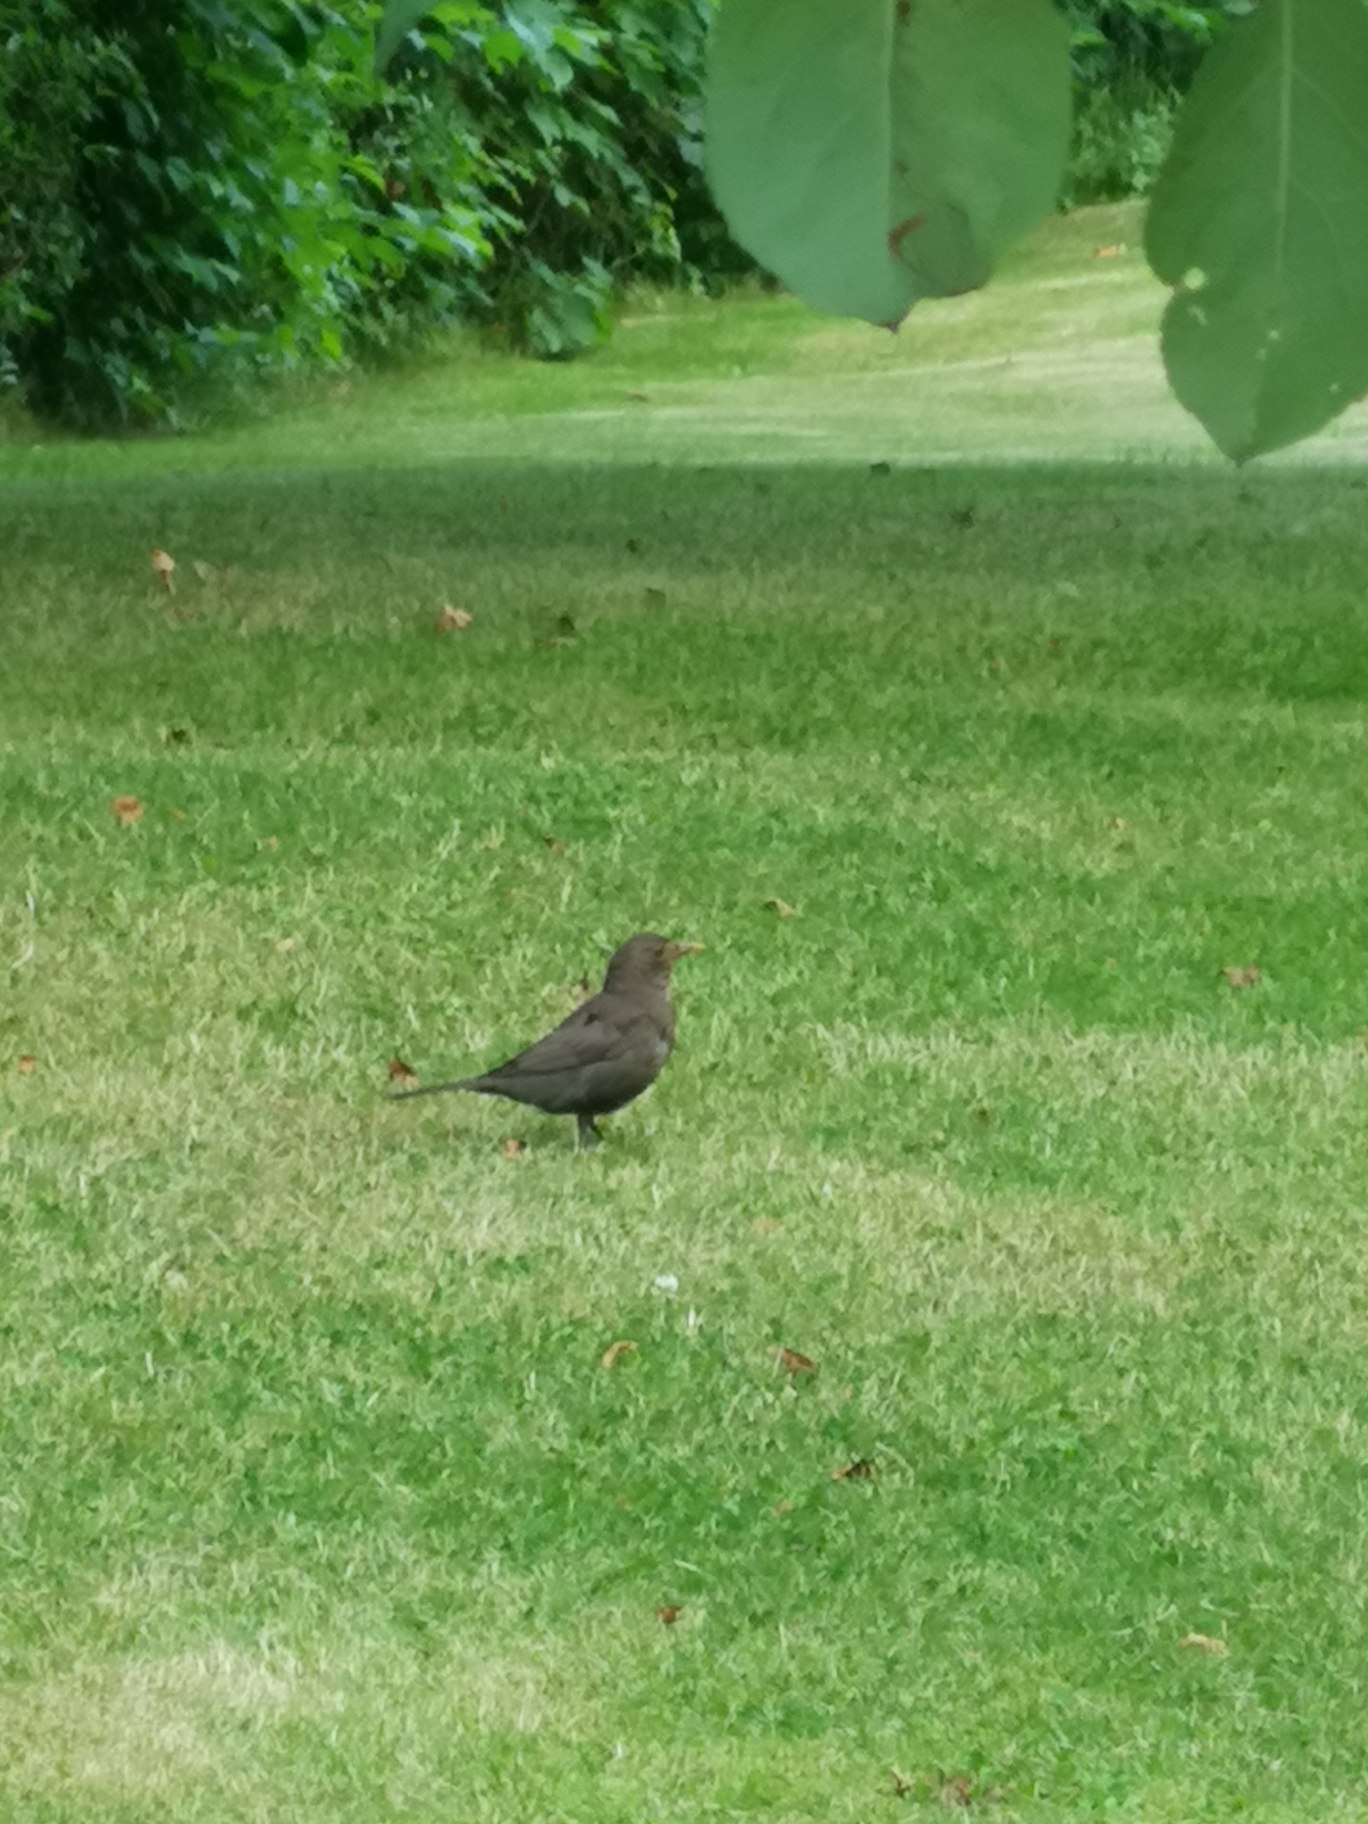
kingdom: Animalia
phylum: Chordata
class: Aves
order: Passeriformes
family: Turdidae
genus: Turdus
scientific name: Turdus merula
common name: Solsort
